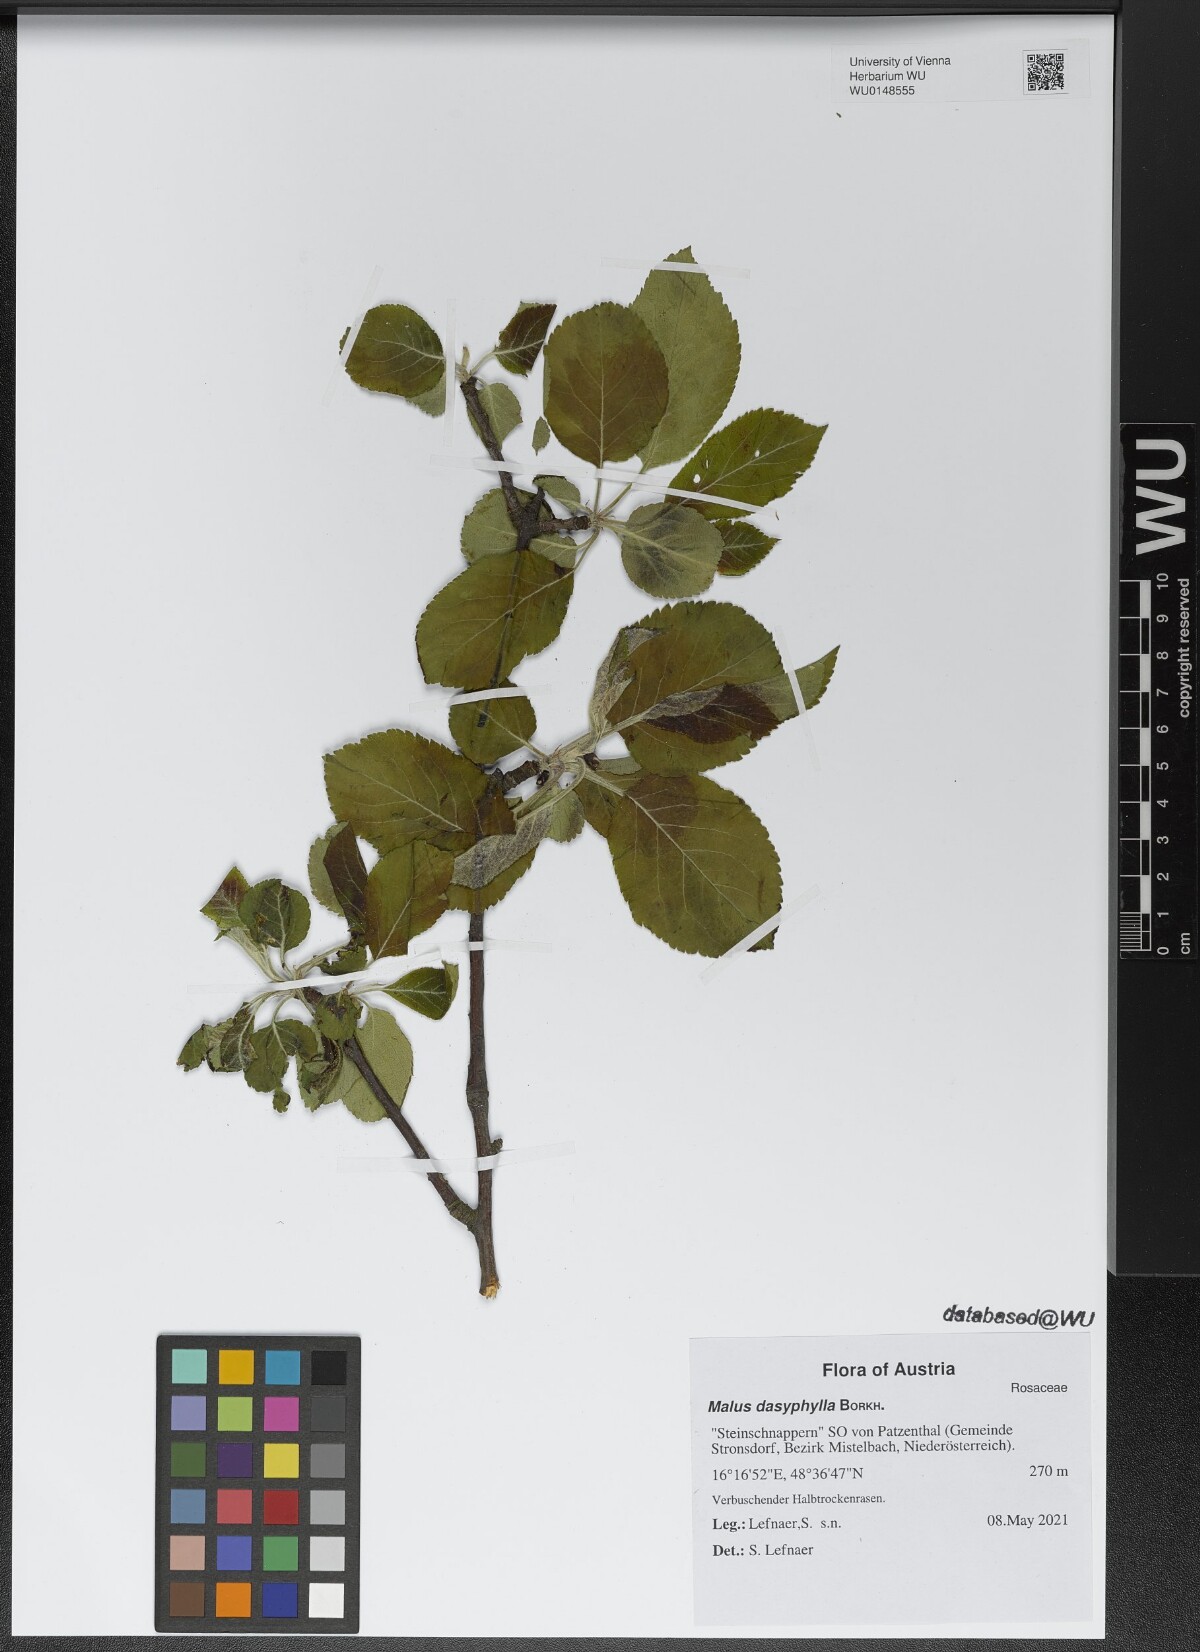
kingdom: Plantae
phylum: Tracheophyta
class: Magnoliopsida
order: Rosales
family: Rosaceae
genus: Malus
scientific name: Malus dasyphylla
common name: Paradise apple
